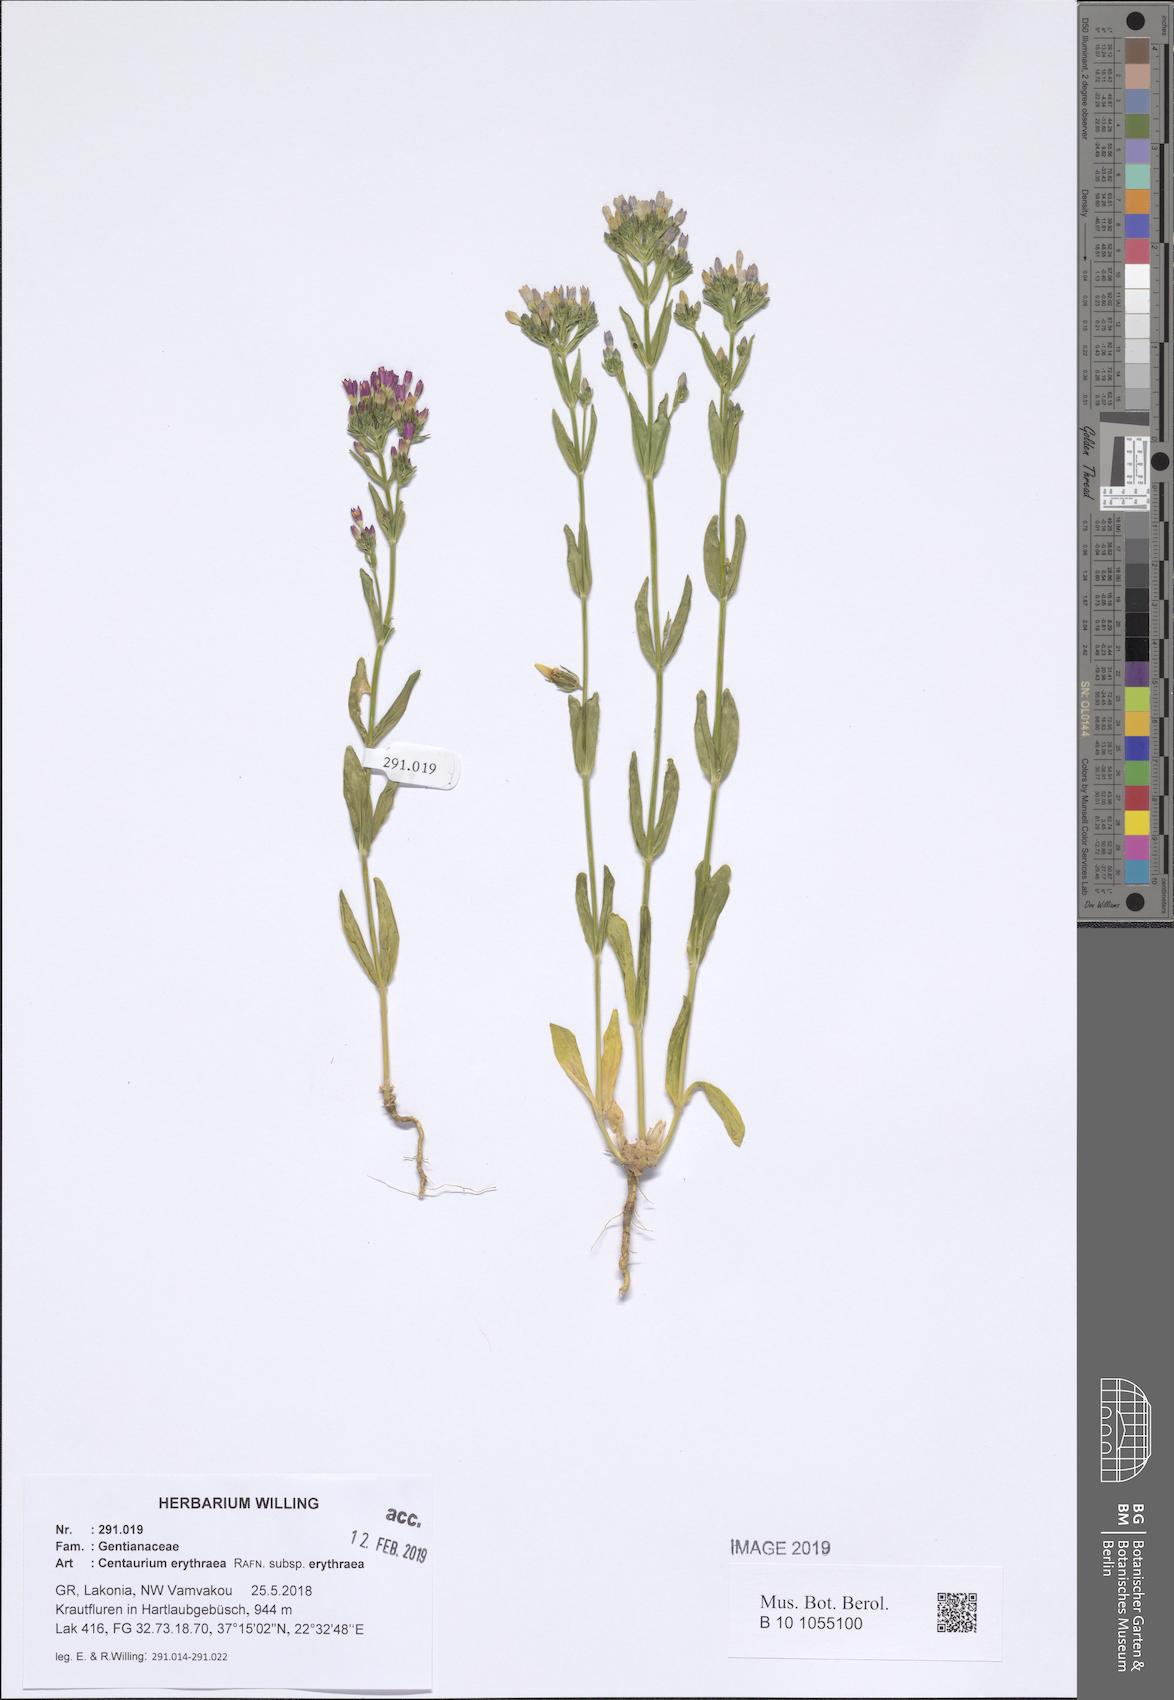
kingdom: Plantae
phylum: Tracheophyta
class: Magnoliopsida
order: Gentianales
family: Gentianaceae
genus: Centaurium
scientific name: Centaurium erythraea
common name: Common centaury
